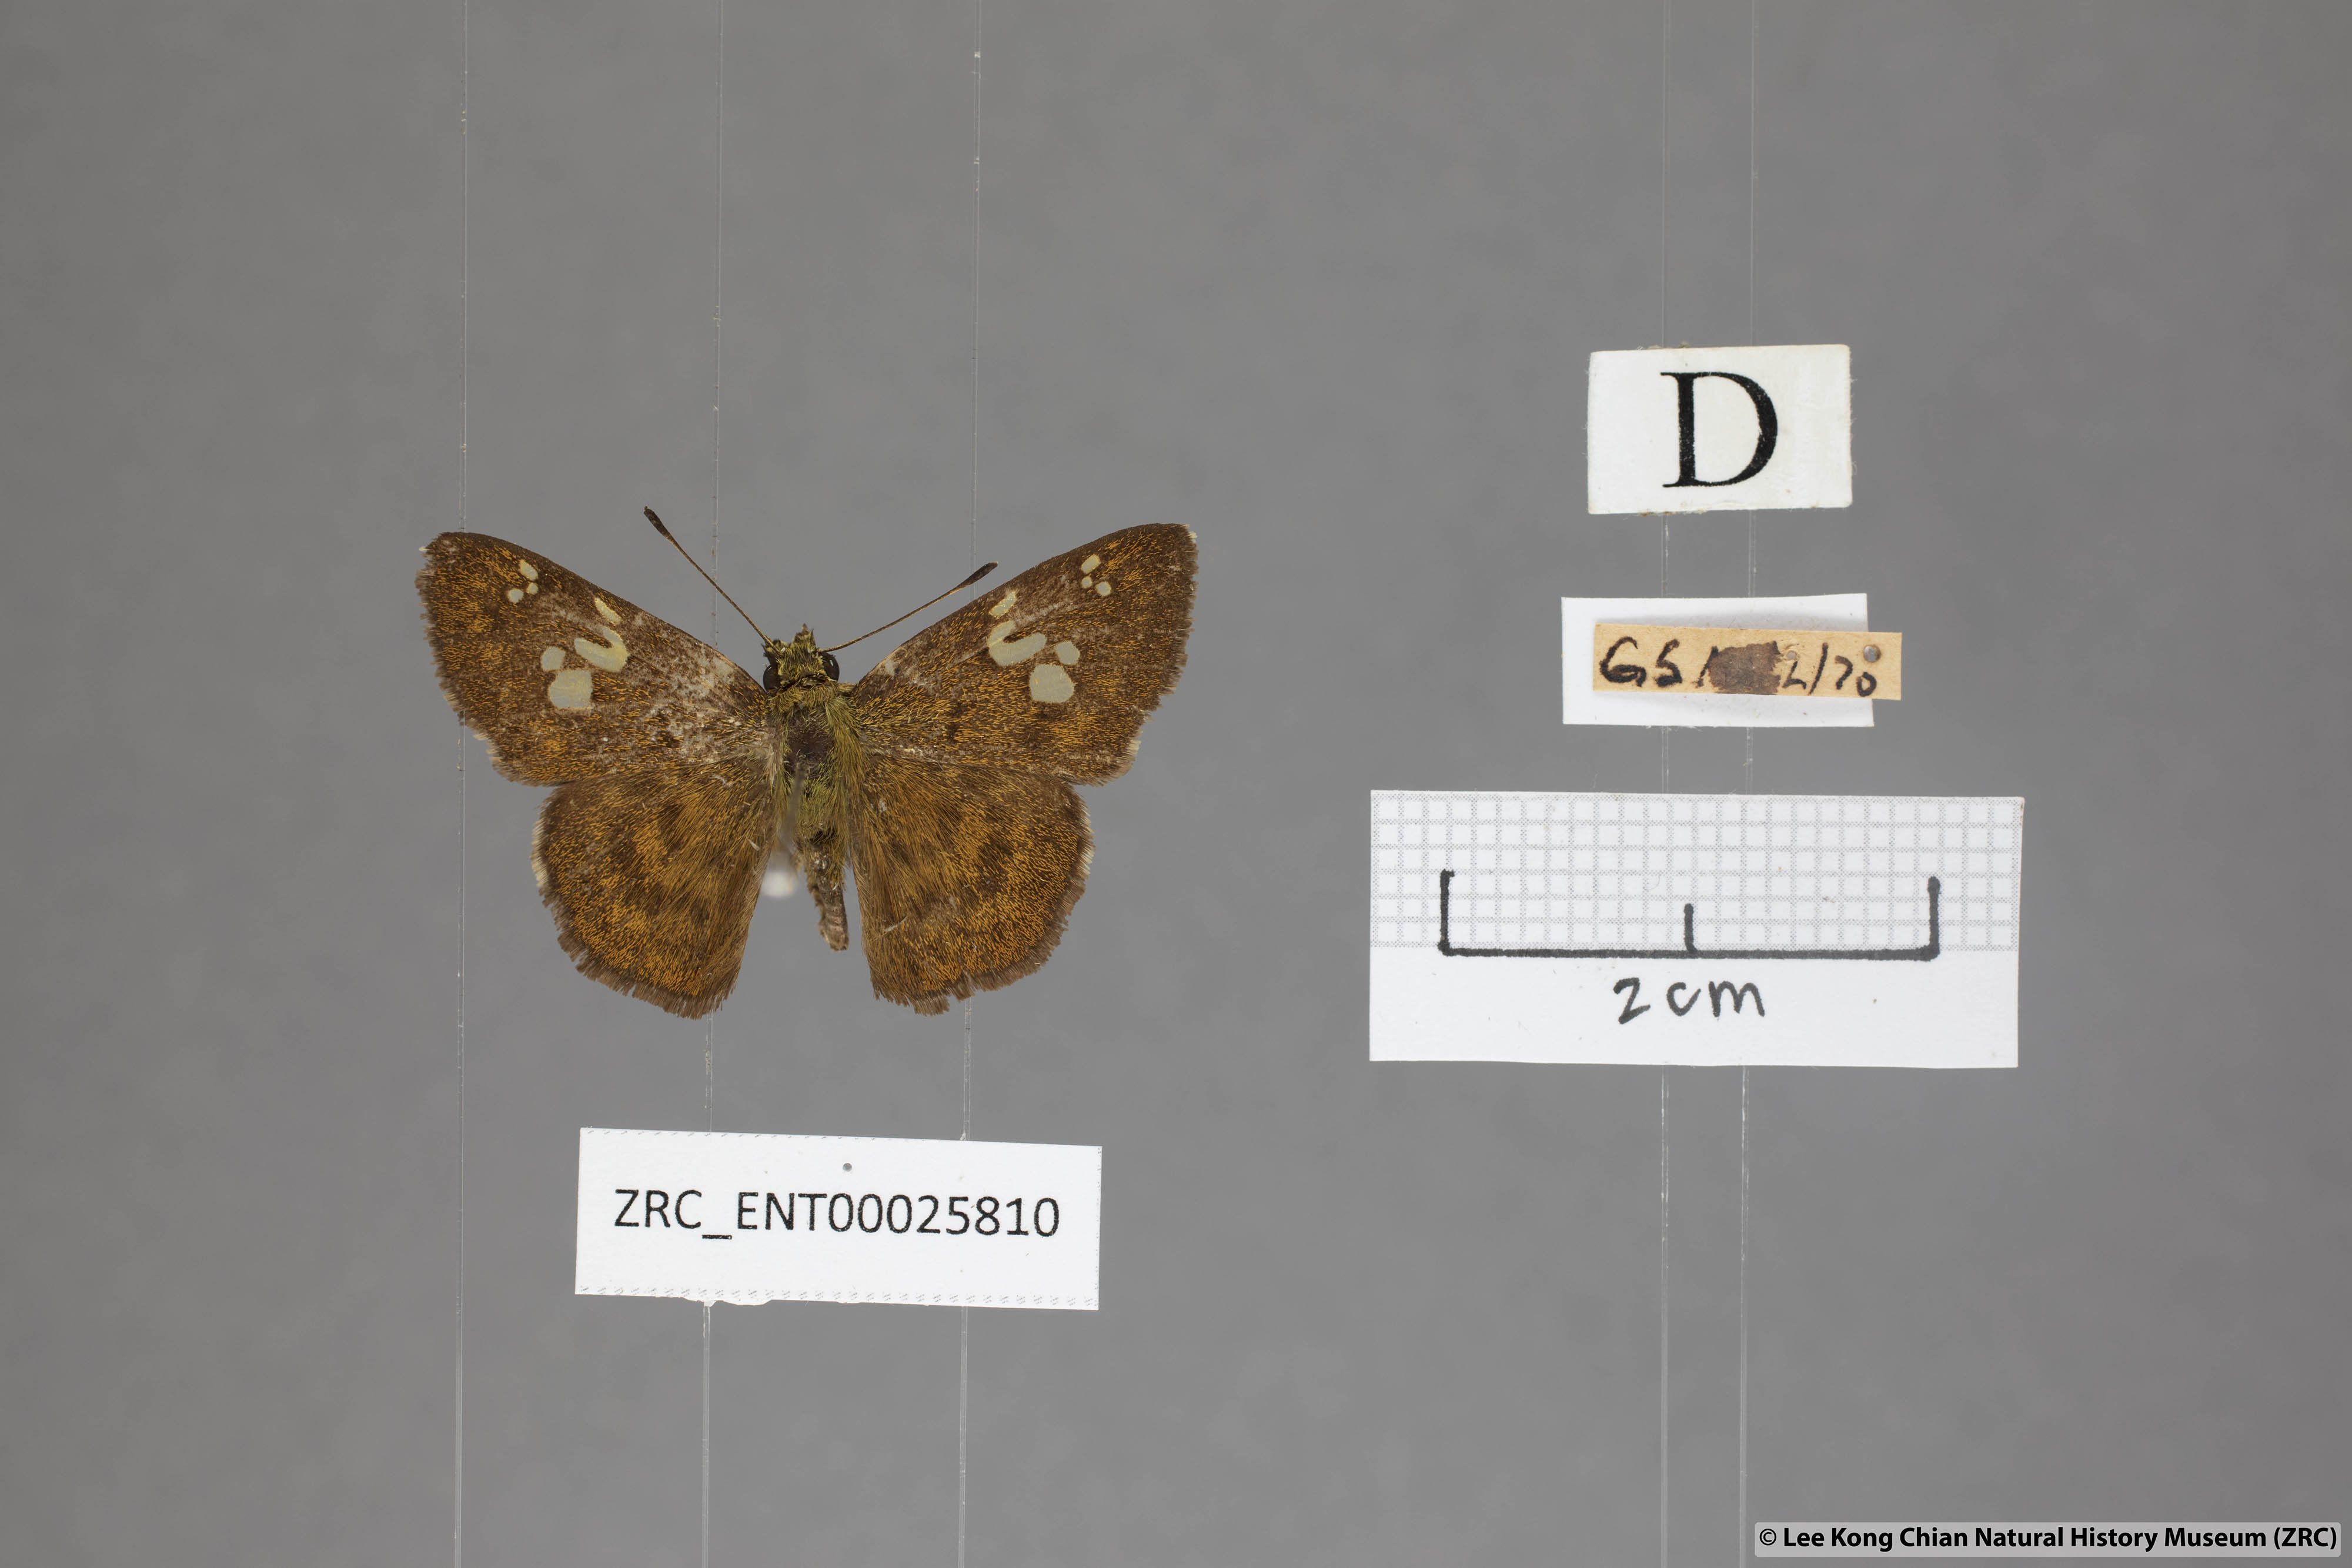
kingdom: Animalia
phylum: Arthropoda
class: Insecta
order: Lepidoptera
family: Hesperiidae
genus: Pseudocoladenia
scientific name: Pseudocoladenia dan
